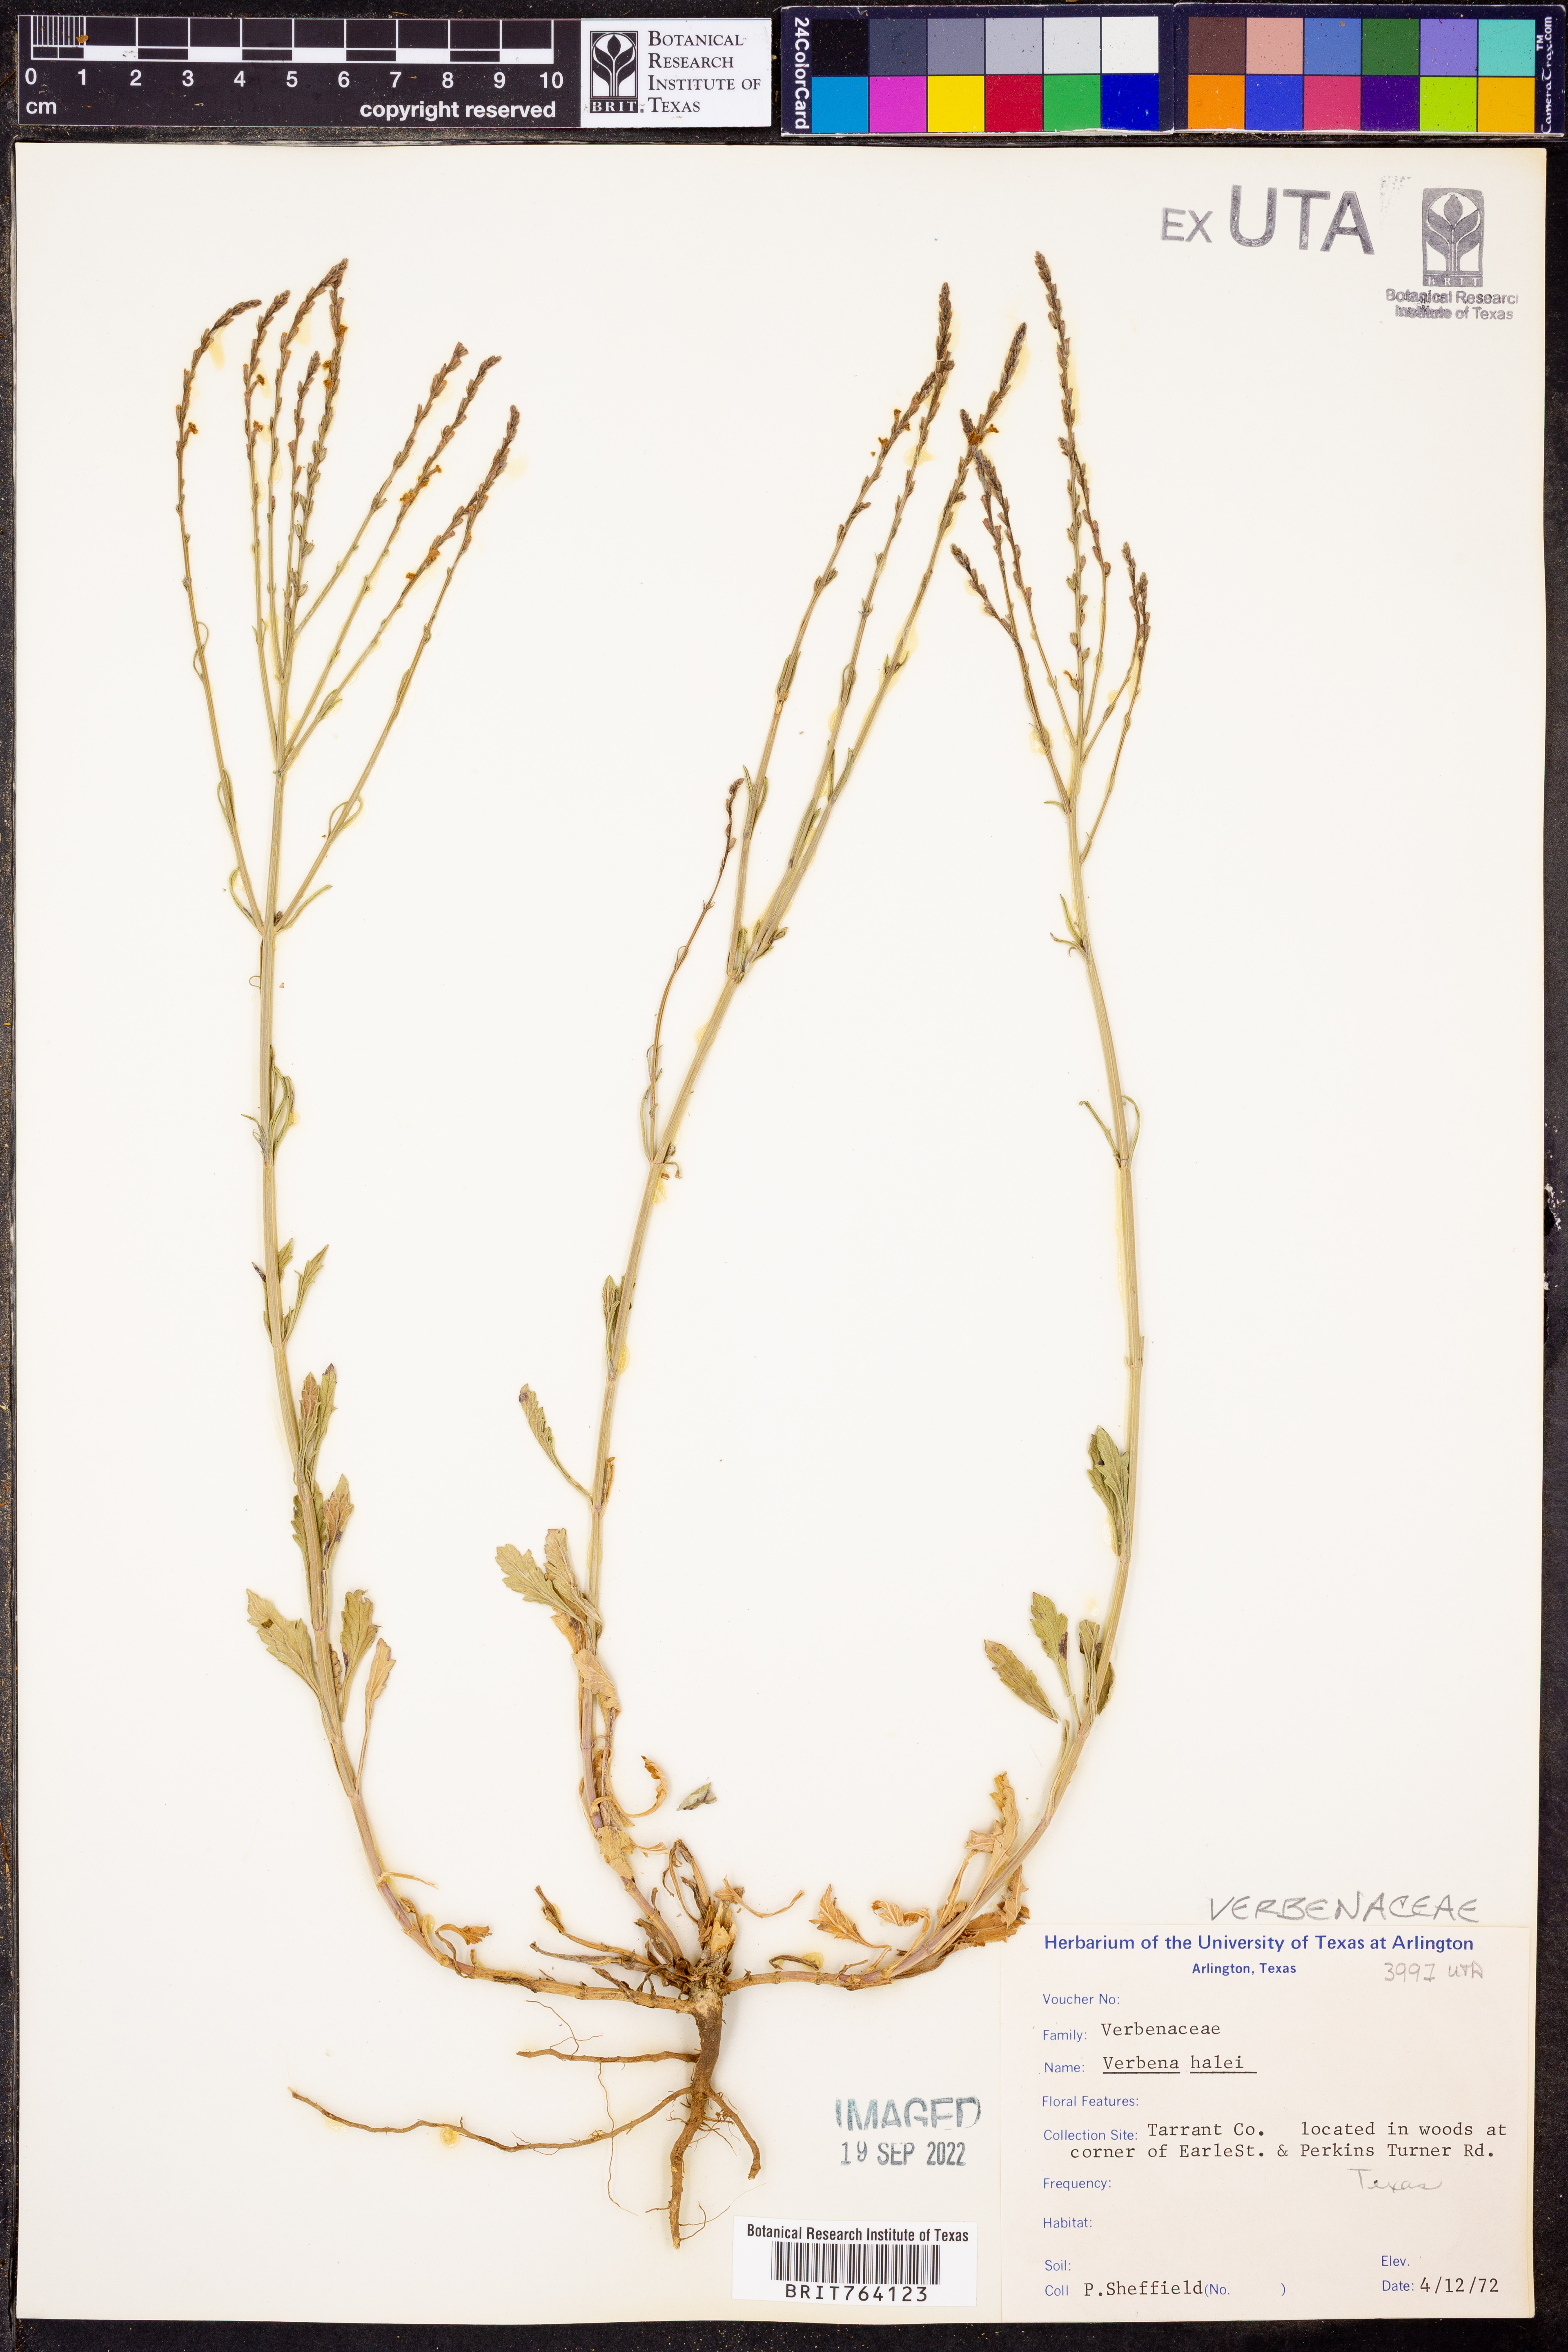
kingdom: Plantae
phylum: Tracheophyta
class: Magnoliopsida
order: Lamiales
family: Verbenaceae
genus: Verbena
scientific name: Verbena halei
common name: Texas vervain
